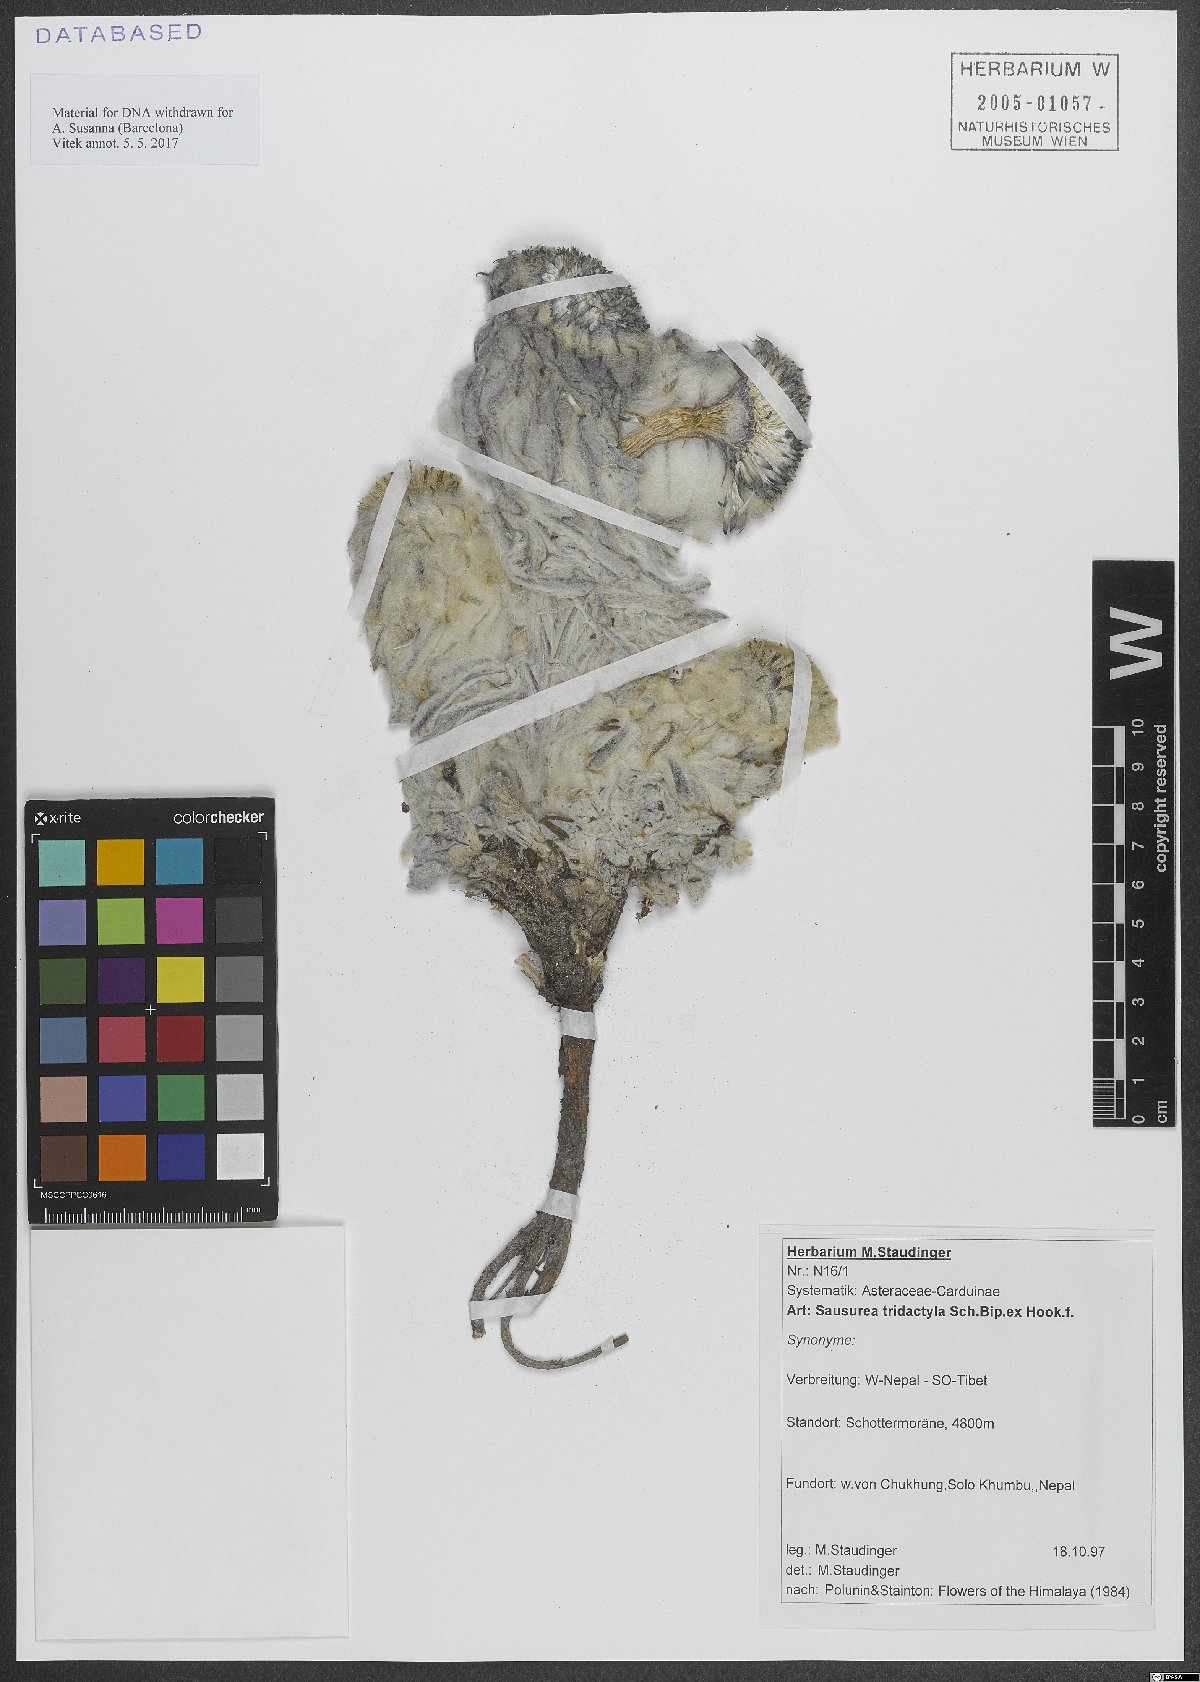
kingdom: Plantae
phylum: Tracheophyta
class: Magnoliopsida
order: Asterales
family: Asteraceae
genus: Saussurea
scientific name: Saussurea tridactyla
